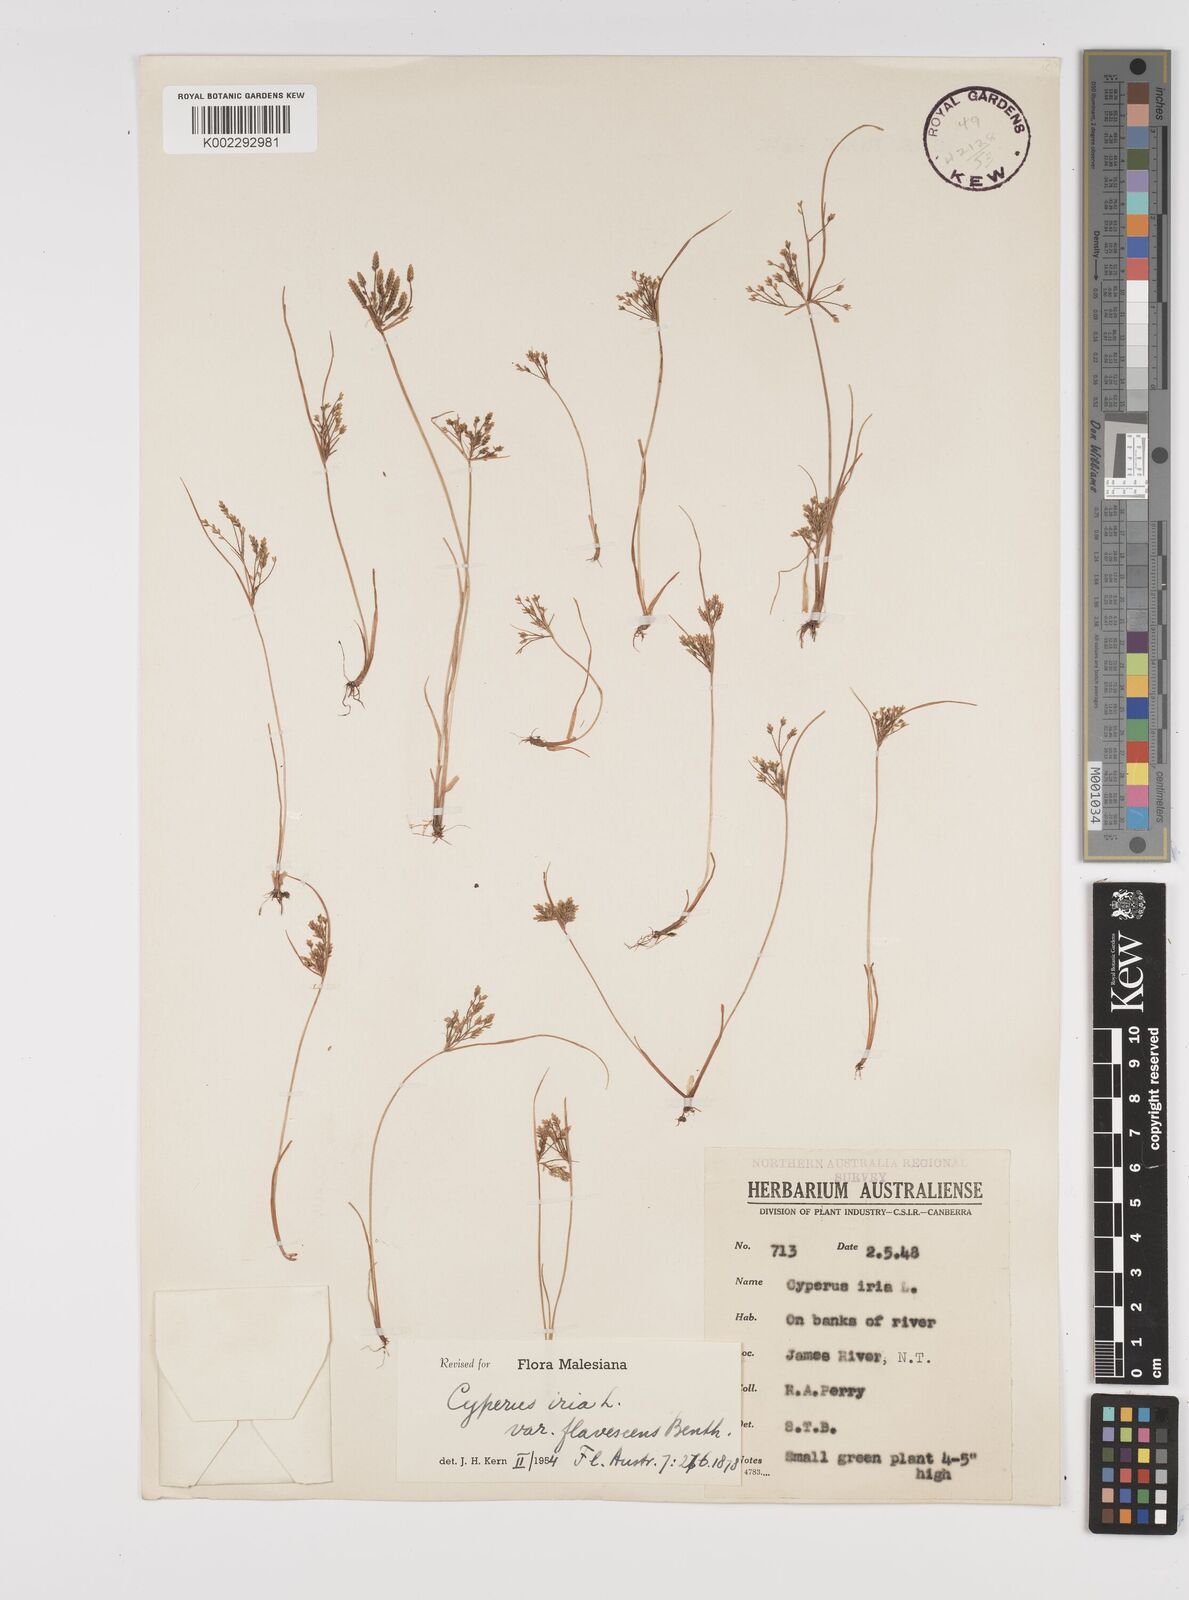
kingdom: Plantae
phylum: Tracheophyta
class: Liliopsida
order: Poales
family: Cyperaceae
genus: Cyperus
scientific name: Cyperus iria
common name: Ricefield flatsedge
